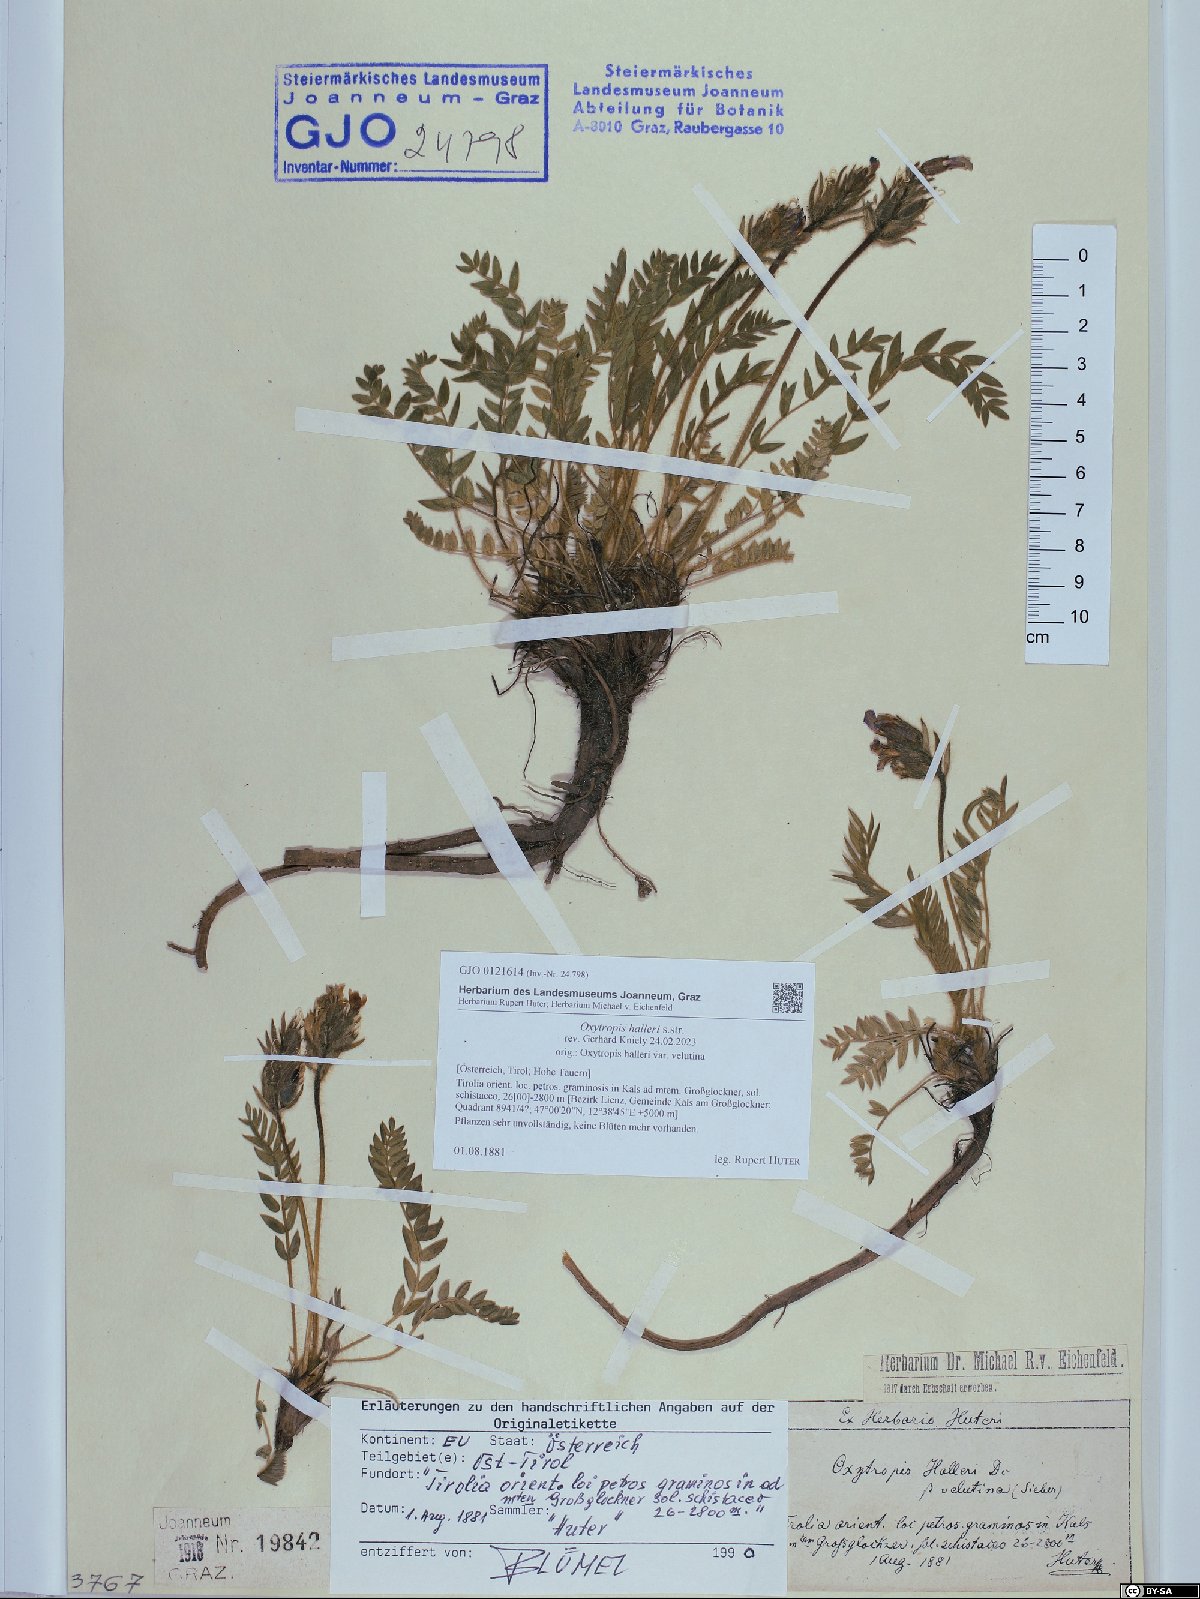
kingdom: Plantae
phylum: Tracheophyta
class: Magnoliopsida
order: Fabales
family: Fabaceae
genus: Oxytropis
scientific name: Oxytropis halleri
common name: Purple oxytropis
